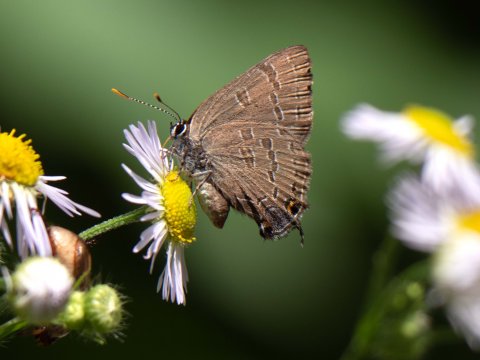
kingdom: Animalia
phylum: Arthropoda
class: Insecta
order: Lepidoptera
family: Lycaenidae
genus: Satyrium
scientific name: Satyrium calanus
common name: Banded Hairstreak
